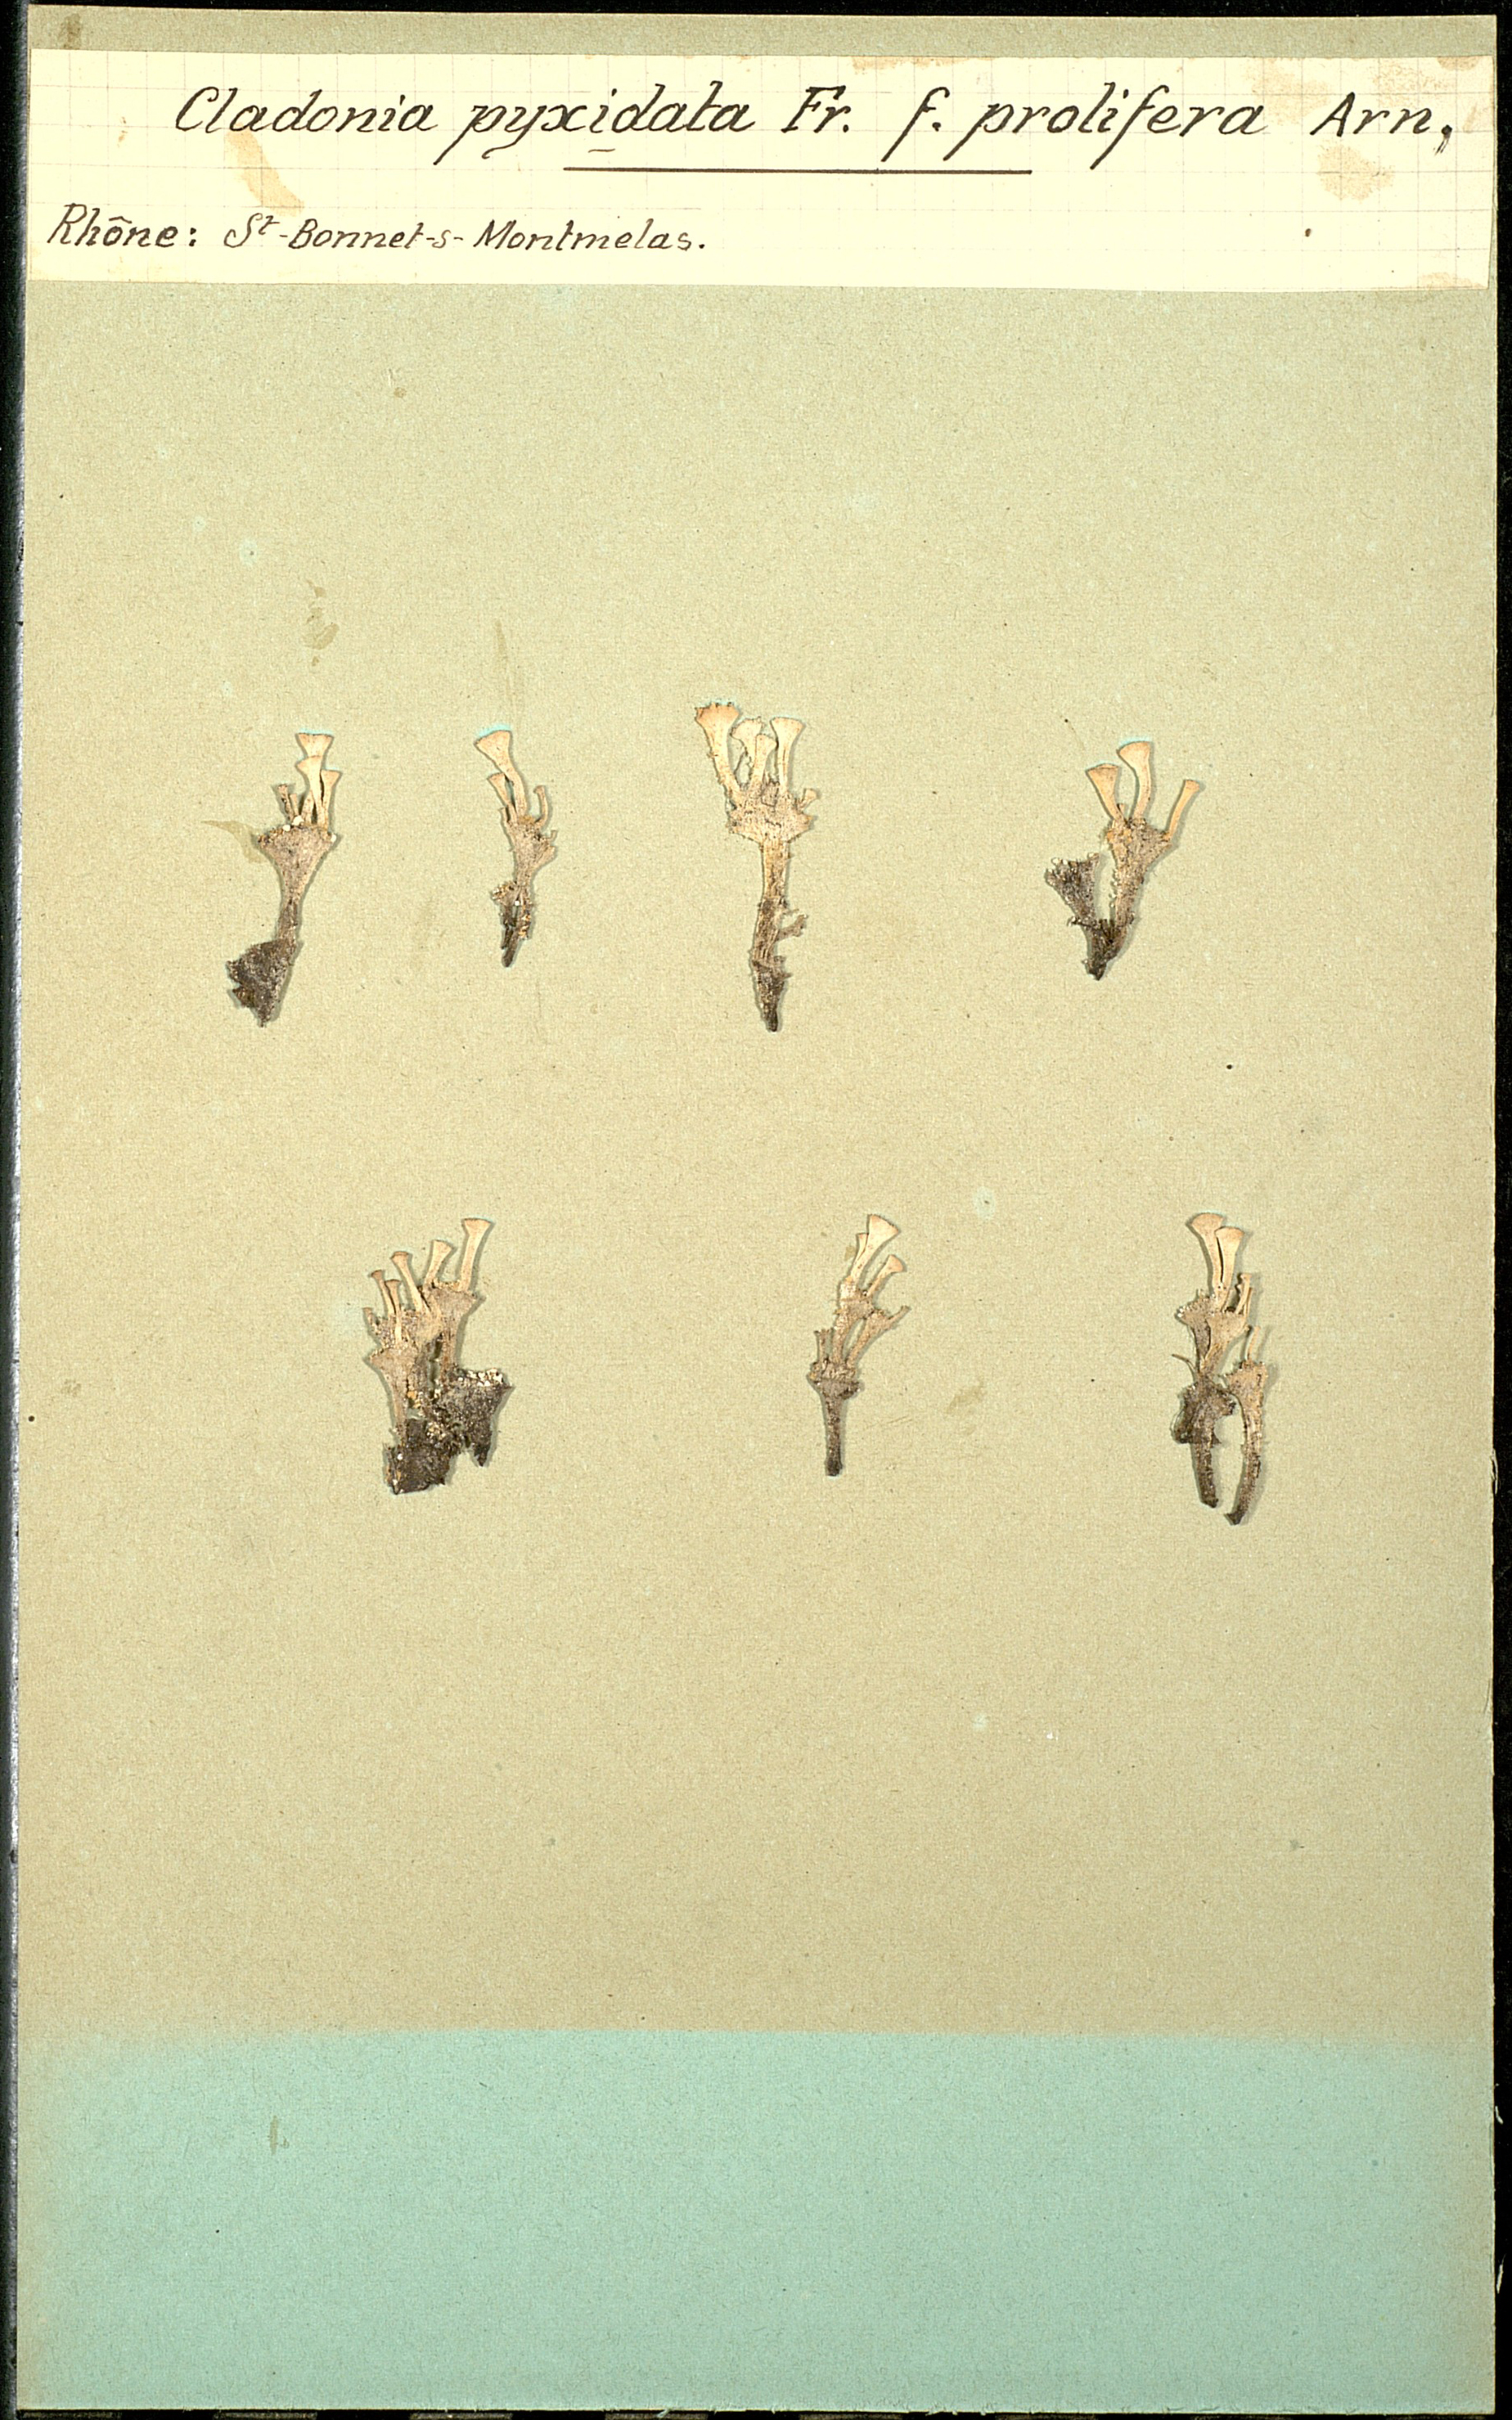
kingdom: Fungi
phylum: Ascomycota
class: Lecanoromycetes
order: Lecanorales
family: Cladoniaceae
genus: Cladonia
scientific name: Cladonia pyxidata
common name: Pebbled pixie cup
